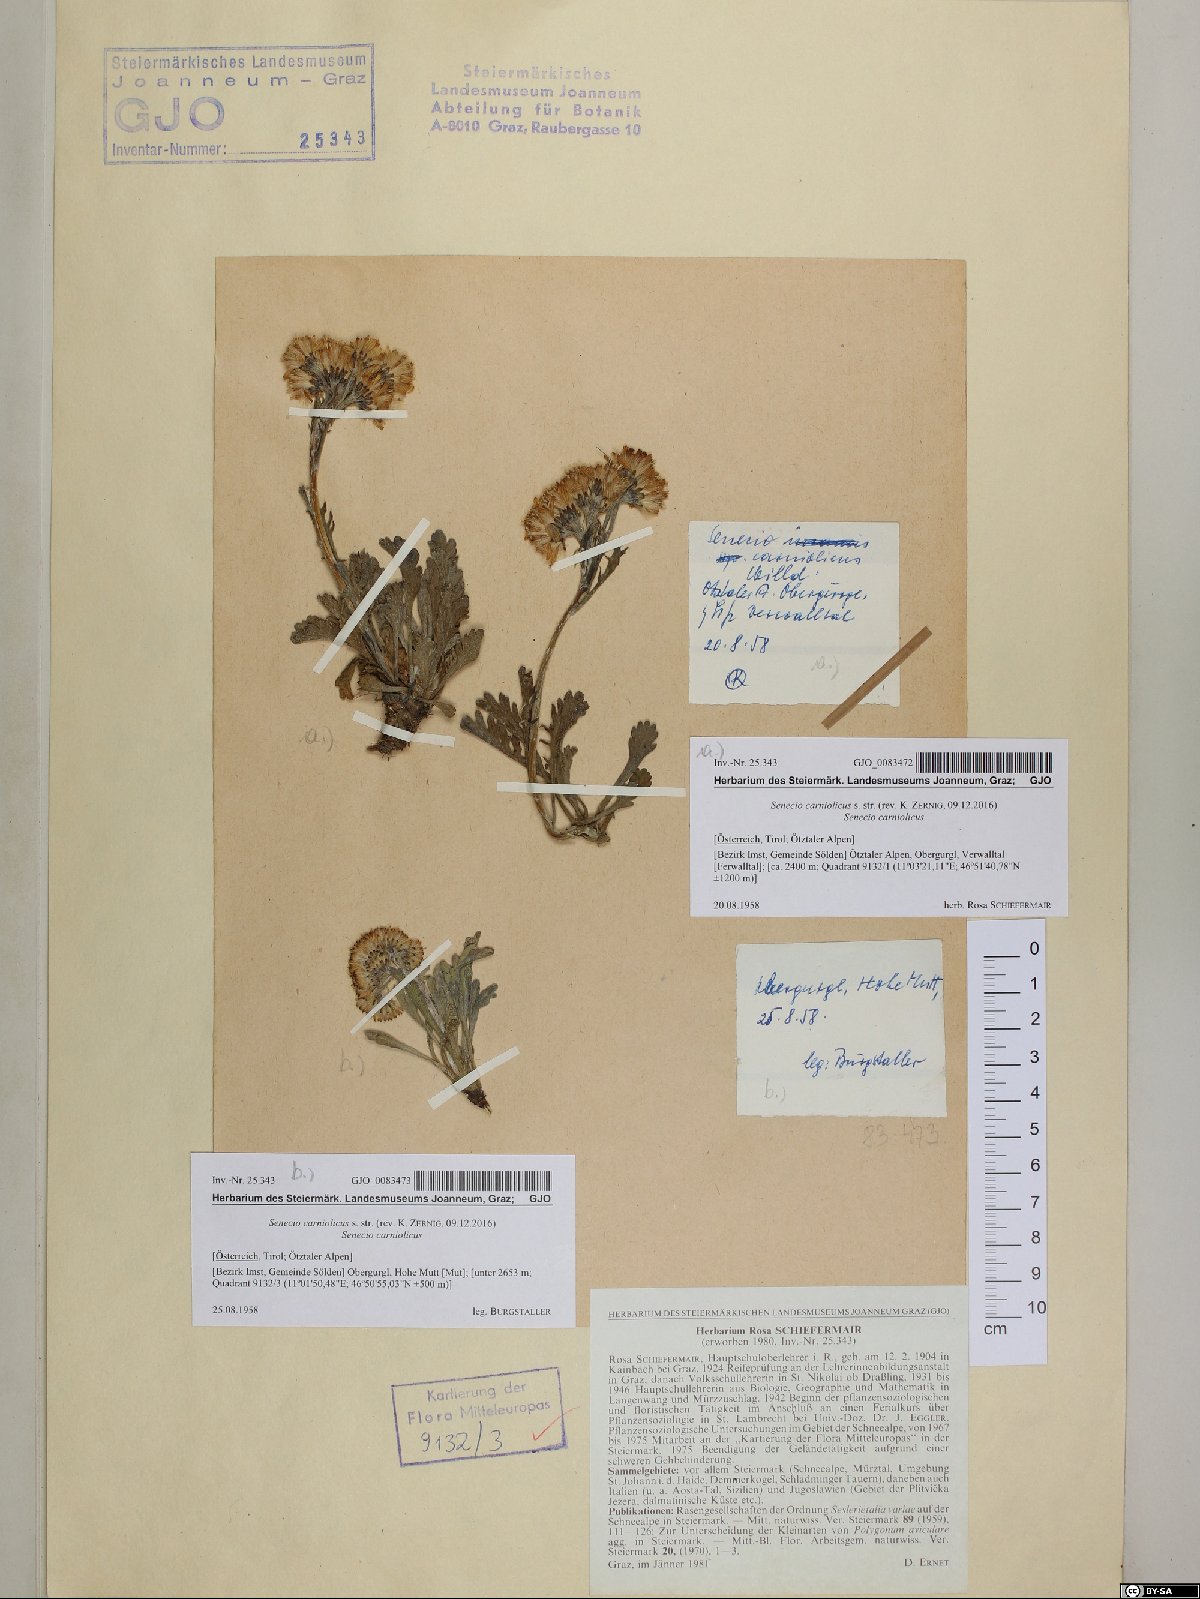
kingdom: Plantae
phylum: Tracheophyta
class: Magnoliopsida
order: Asterales
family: Asteraceae
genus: Jacobaea
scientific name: Jacobaea carniolica
